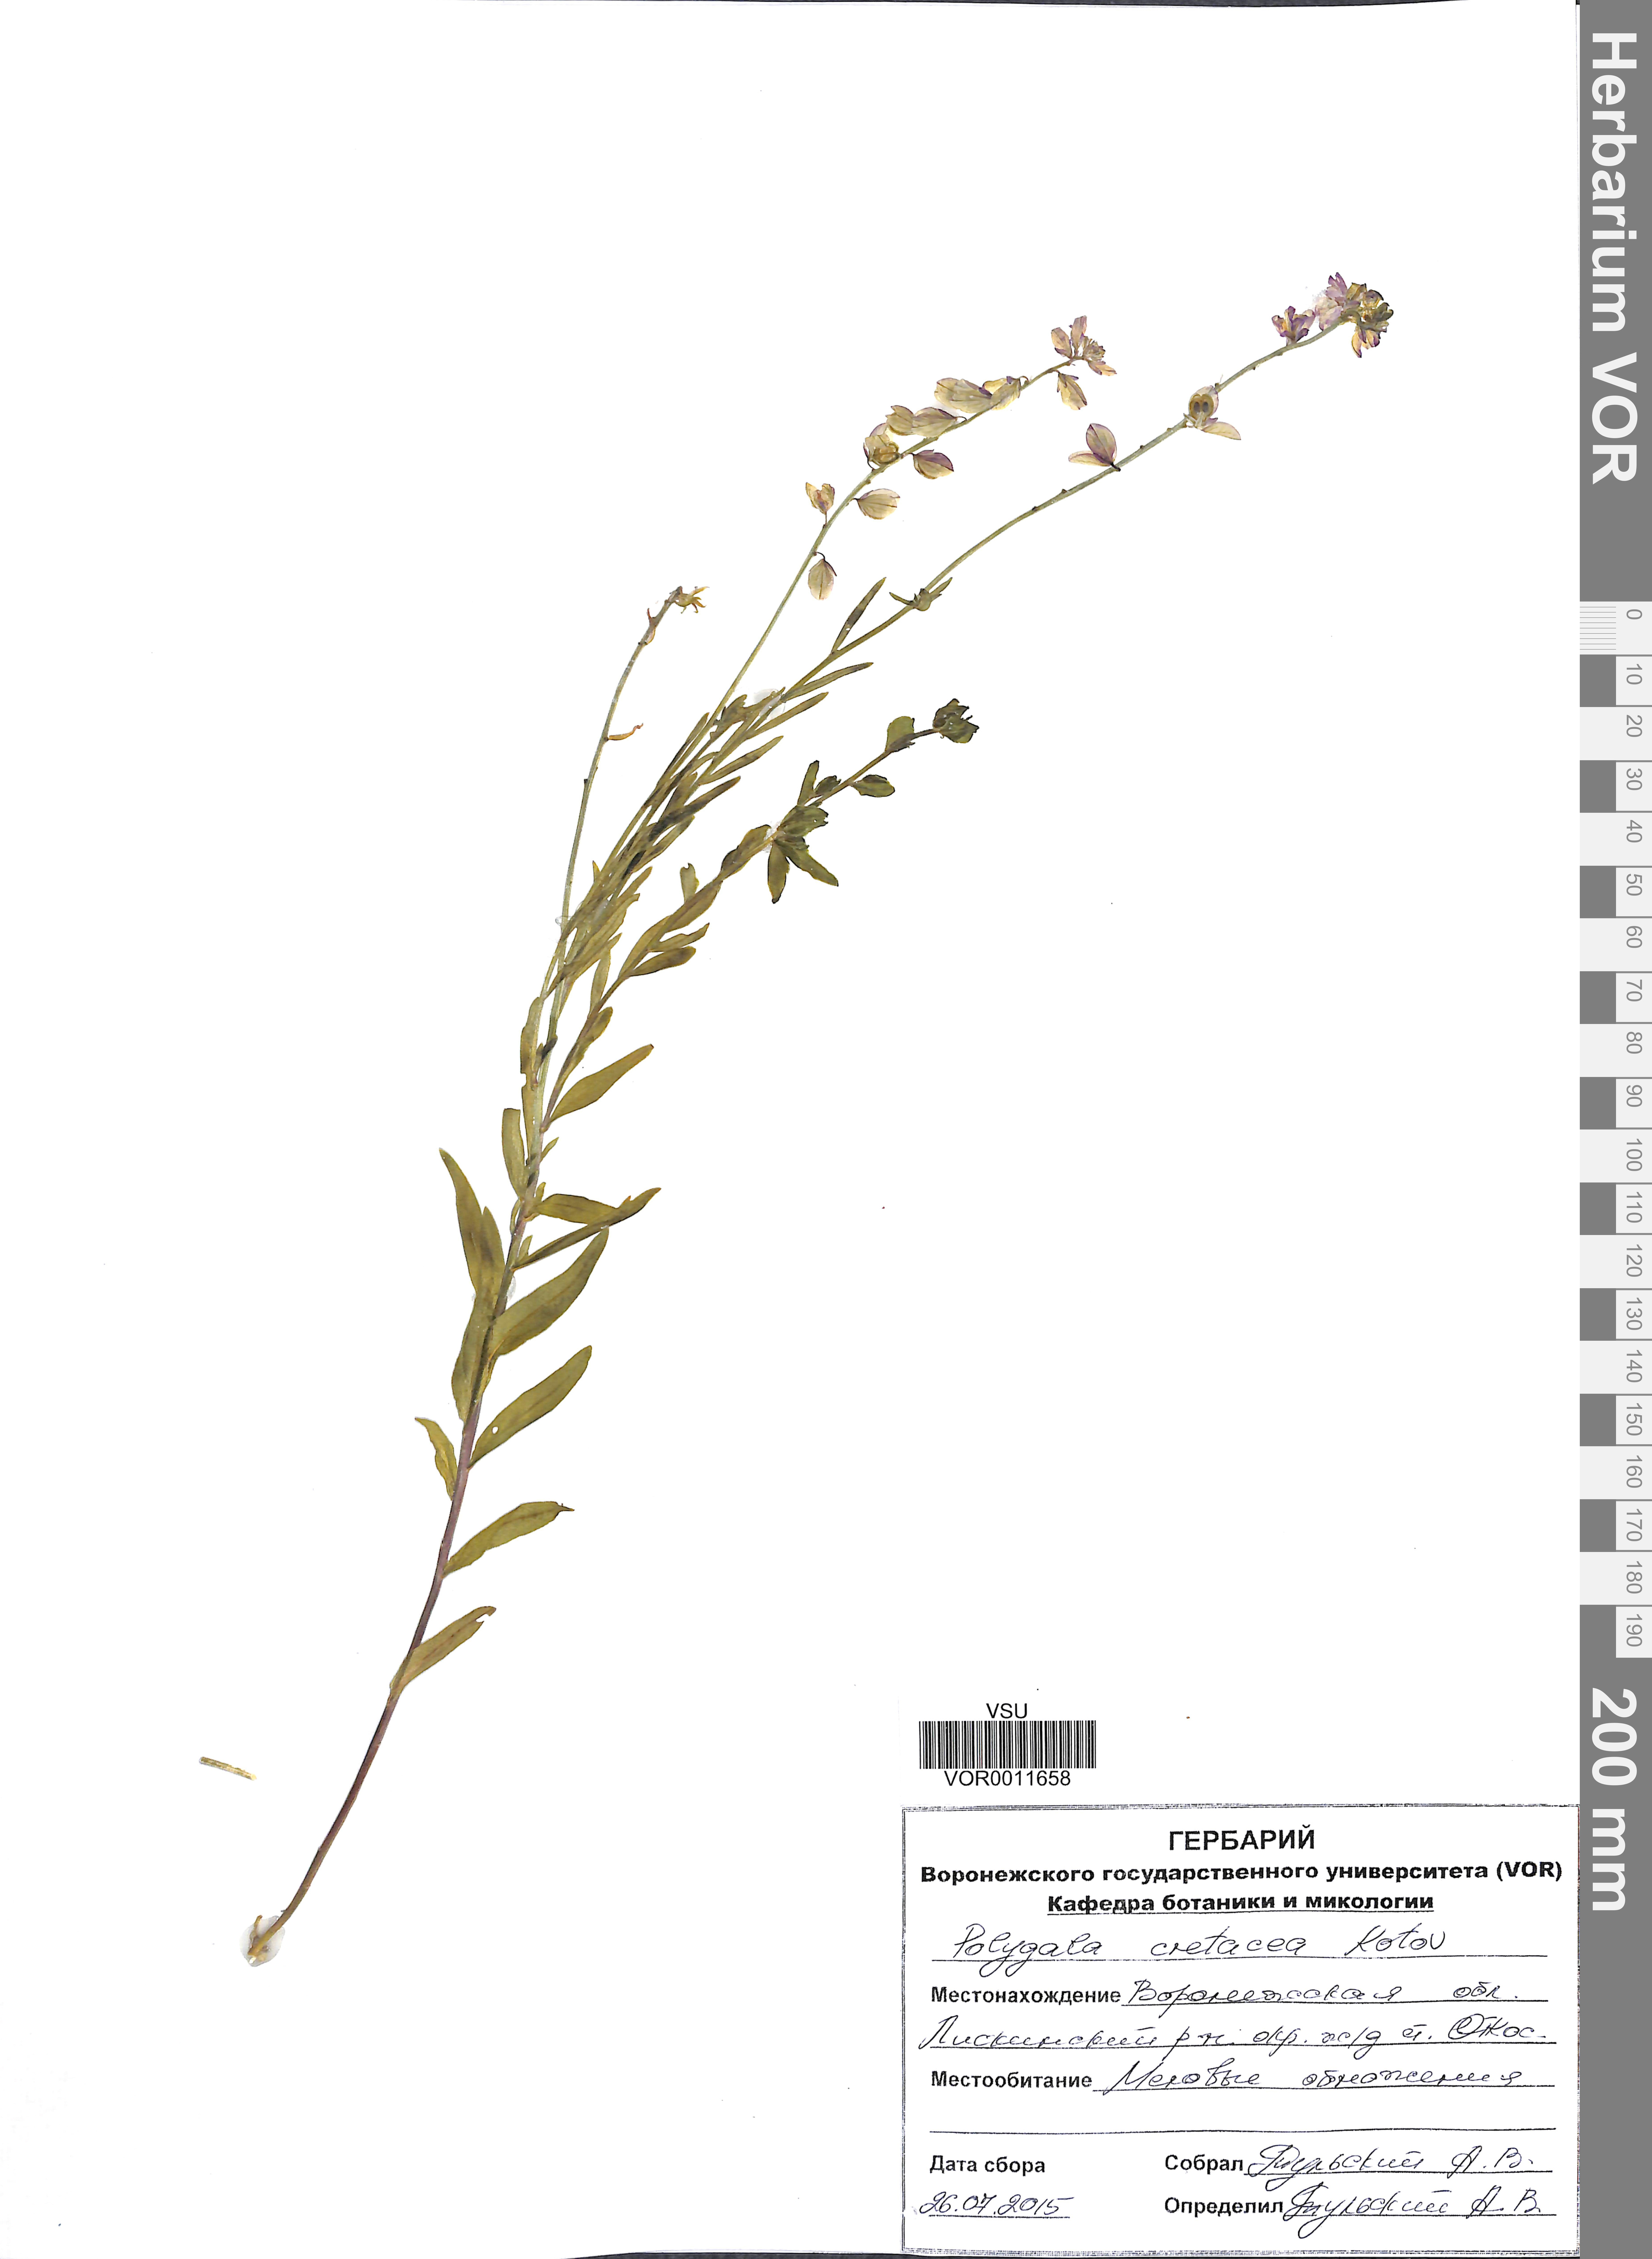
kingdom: Plantae
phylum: Tracheophyta
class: Magnoliopsida
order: Fabales
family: Polygalaceae
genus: Polygala
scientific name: Polygala nicaeensis
